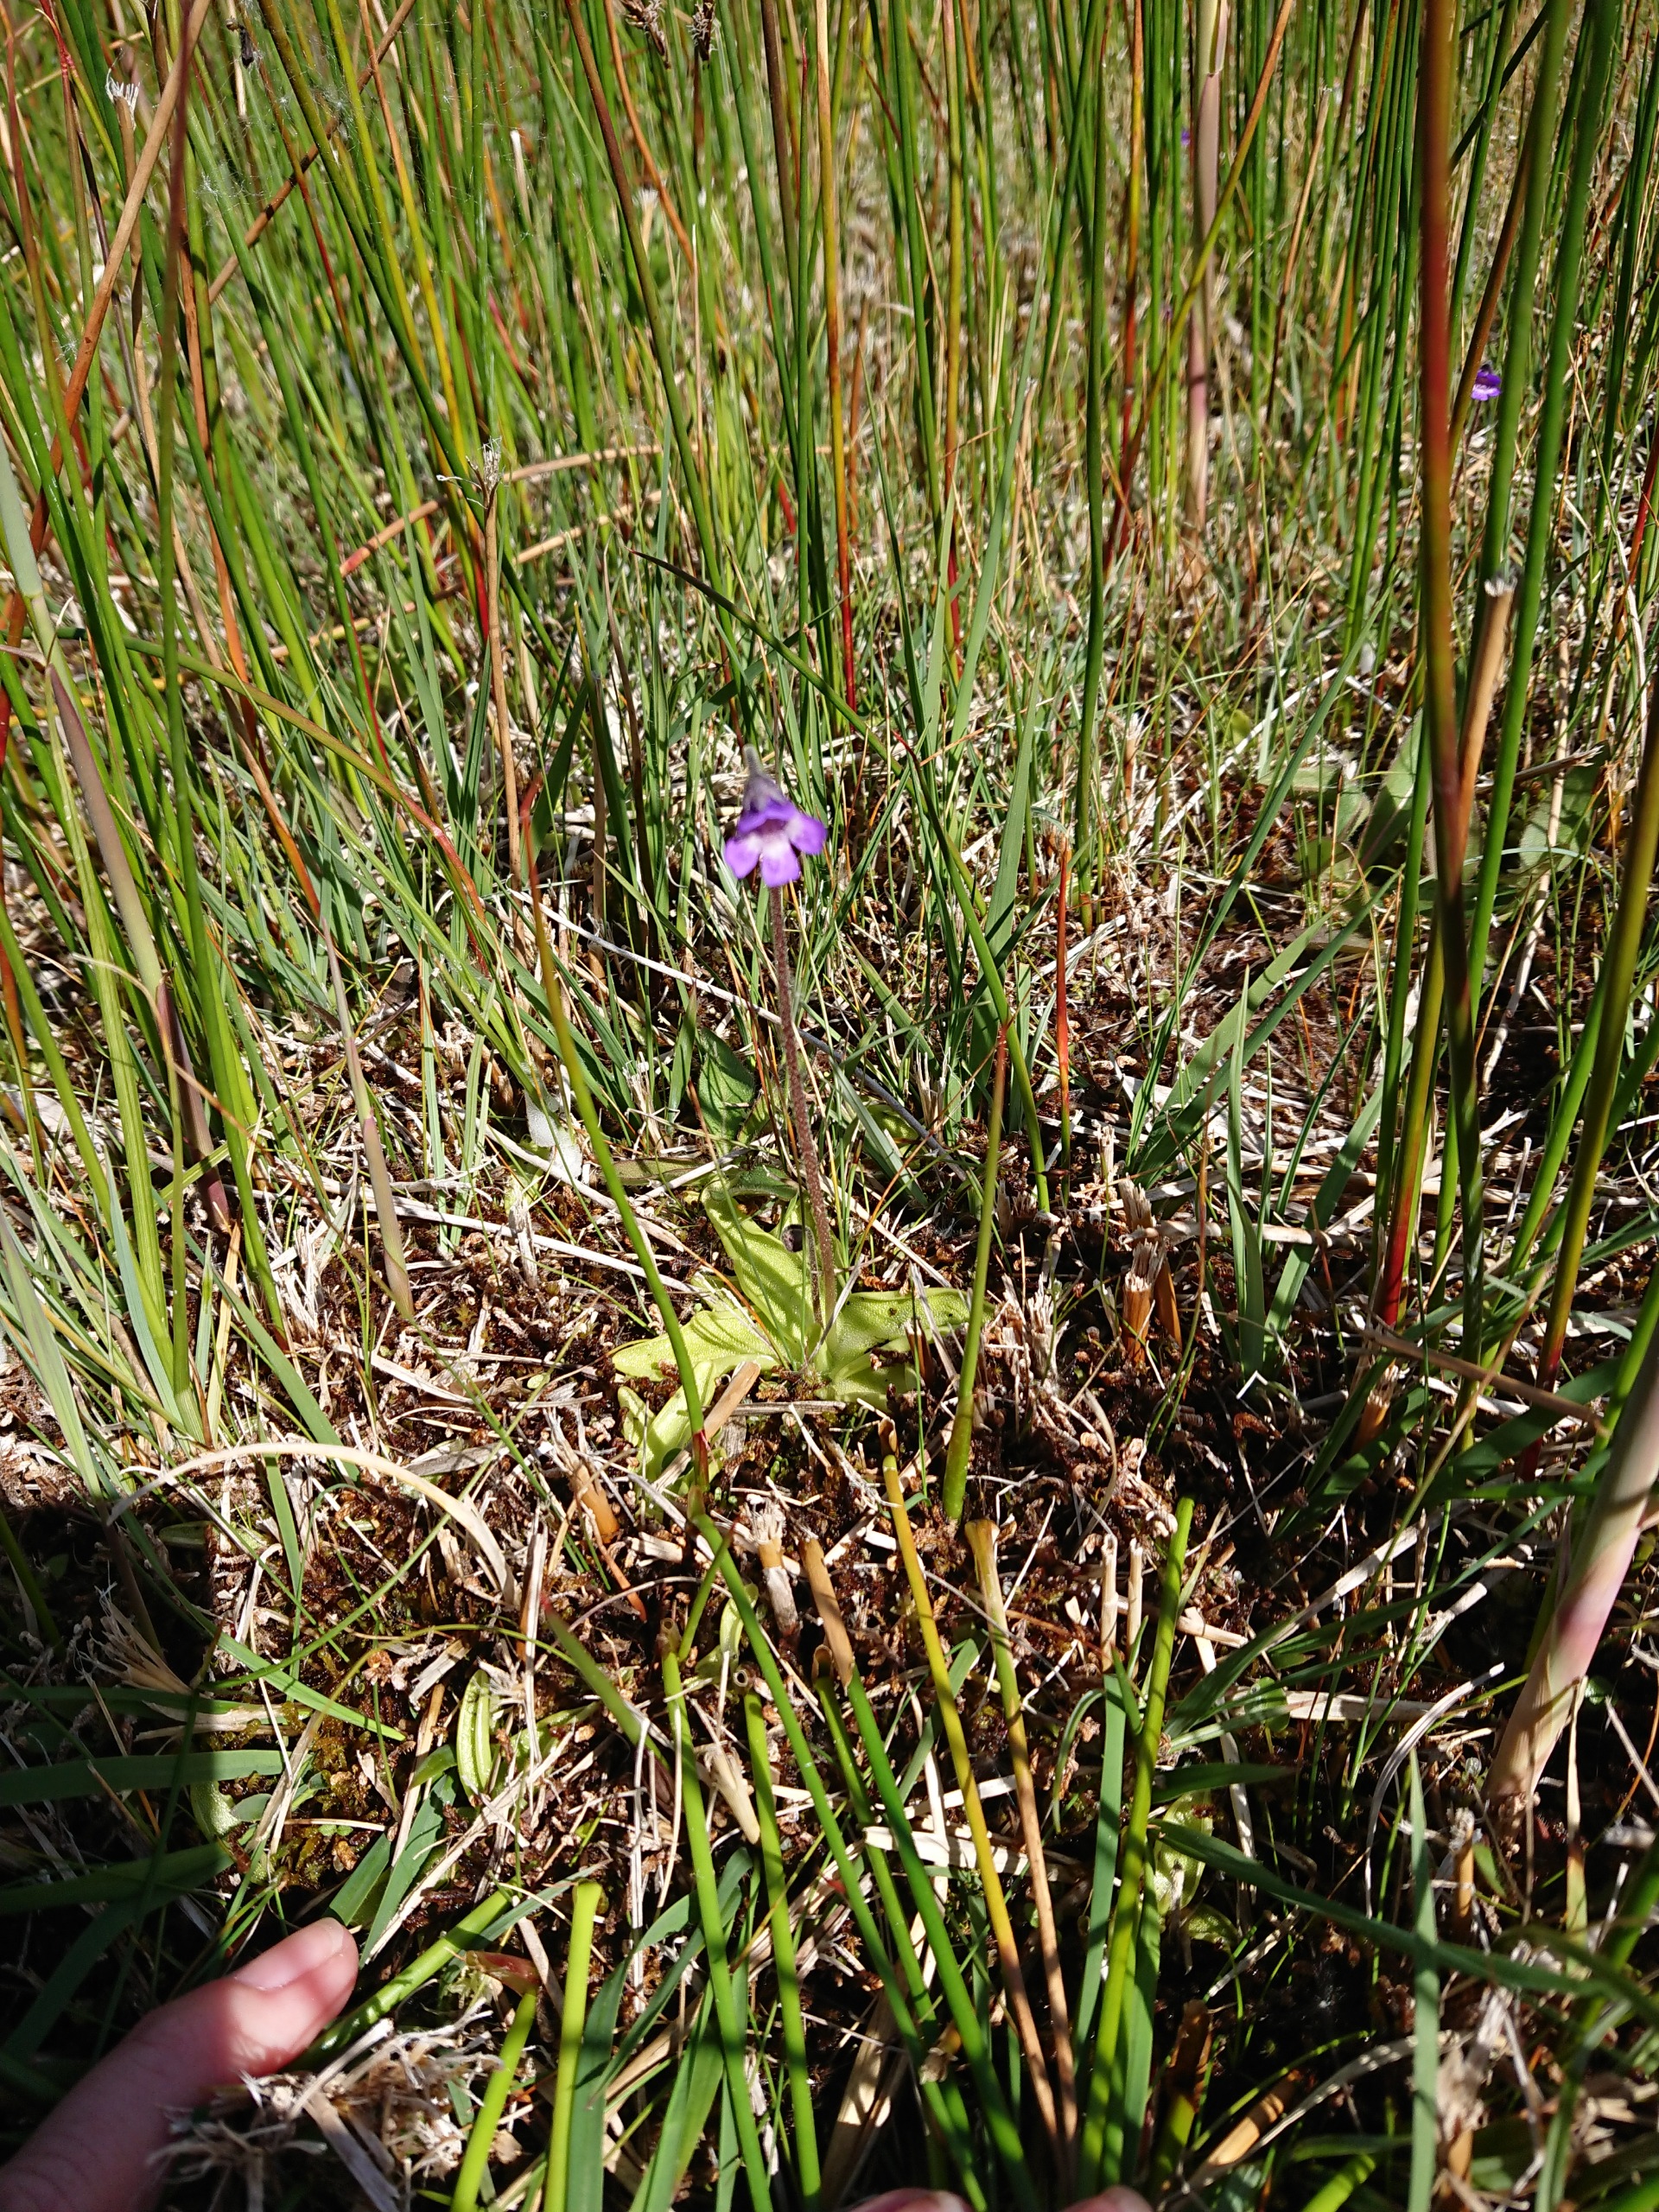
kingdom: Plantae
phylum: Tracheophyta
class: Magnoliopsida
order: Lamiales
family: Lentibulariaceae
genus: Pinguicula
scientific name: Pinguicula vulgaris
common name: Vibefedt
